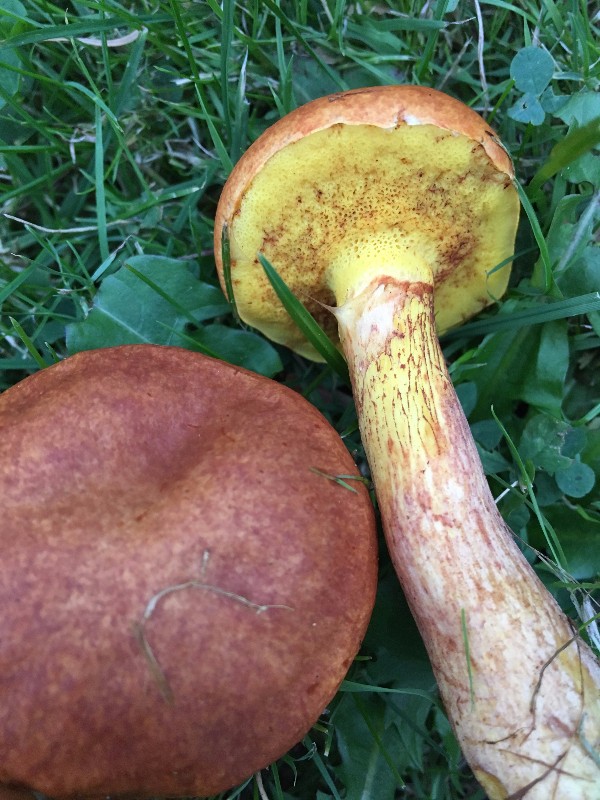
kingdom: Fungi
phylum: Basidiomycota
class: Agaricomycetes
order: Boletales
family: Suillaceae
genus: Suillus
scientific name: Suillus grevillei
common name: lærke-slimrørhat
